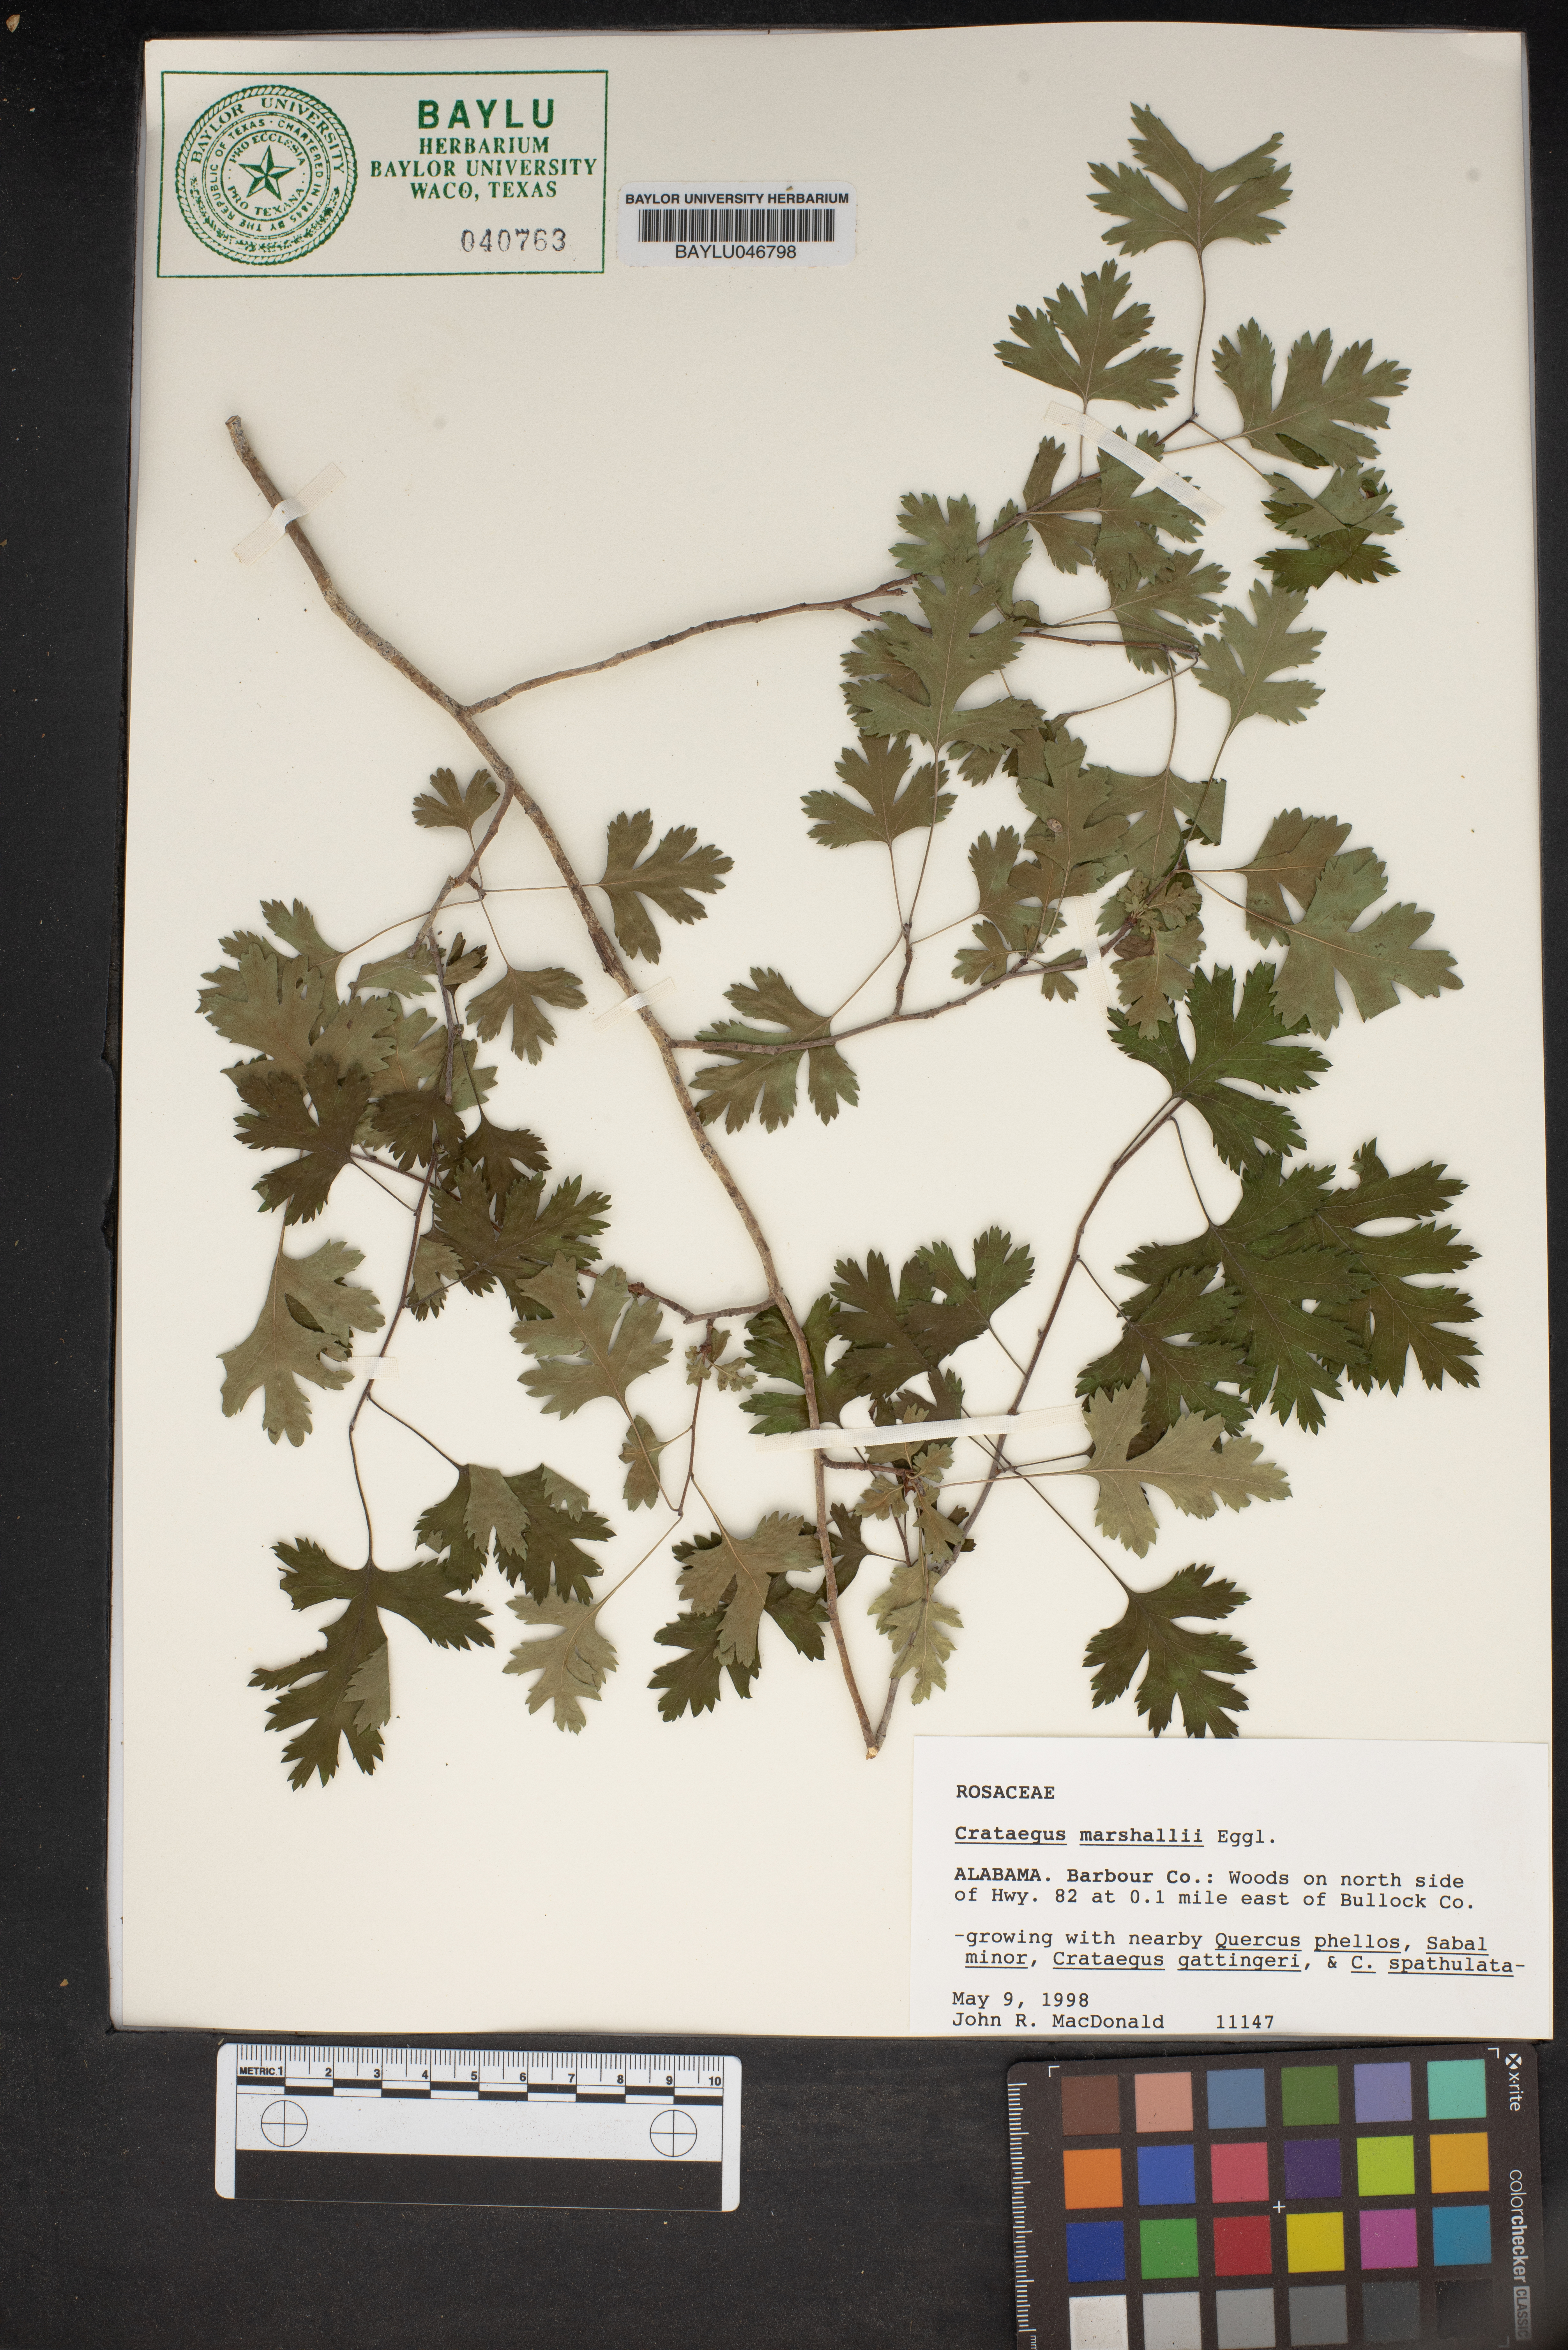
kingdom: Plantae
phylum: Tracheophyta
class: Magnoliopsida
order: Rosales
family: Rosaceae
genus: Crataegus
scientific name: Crataegus marshallii
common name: Parsley-hawthorn
